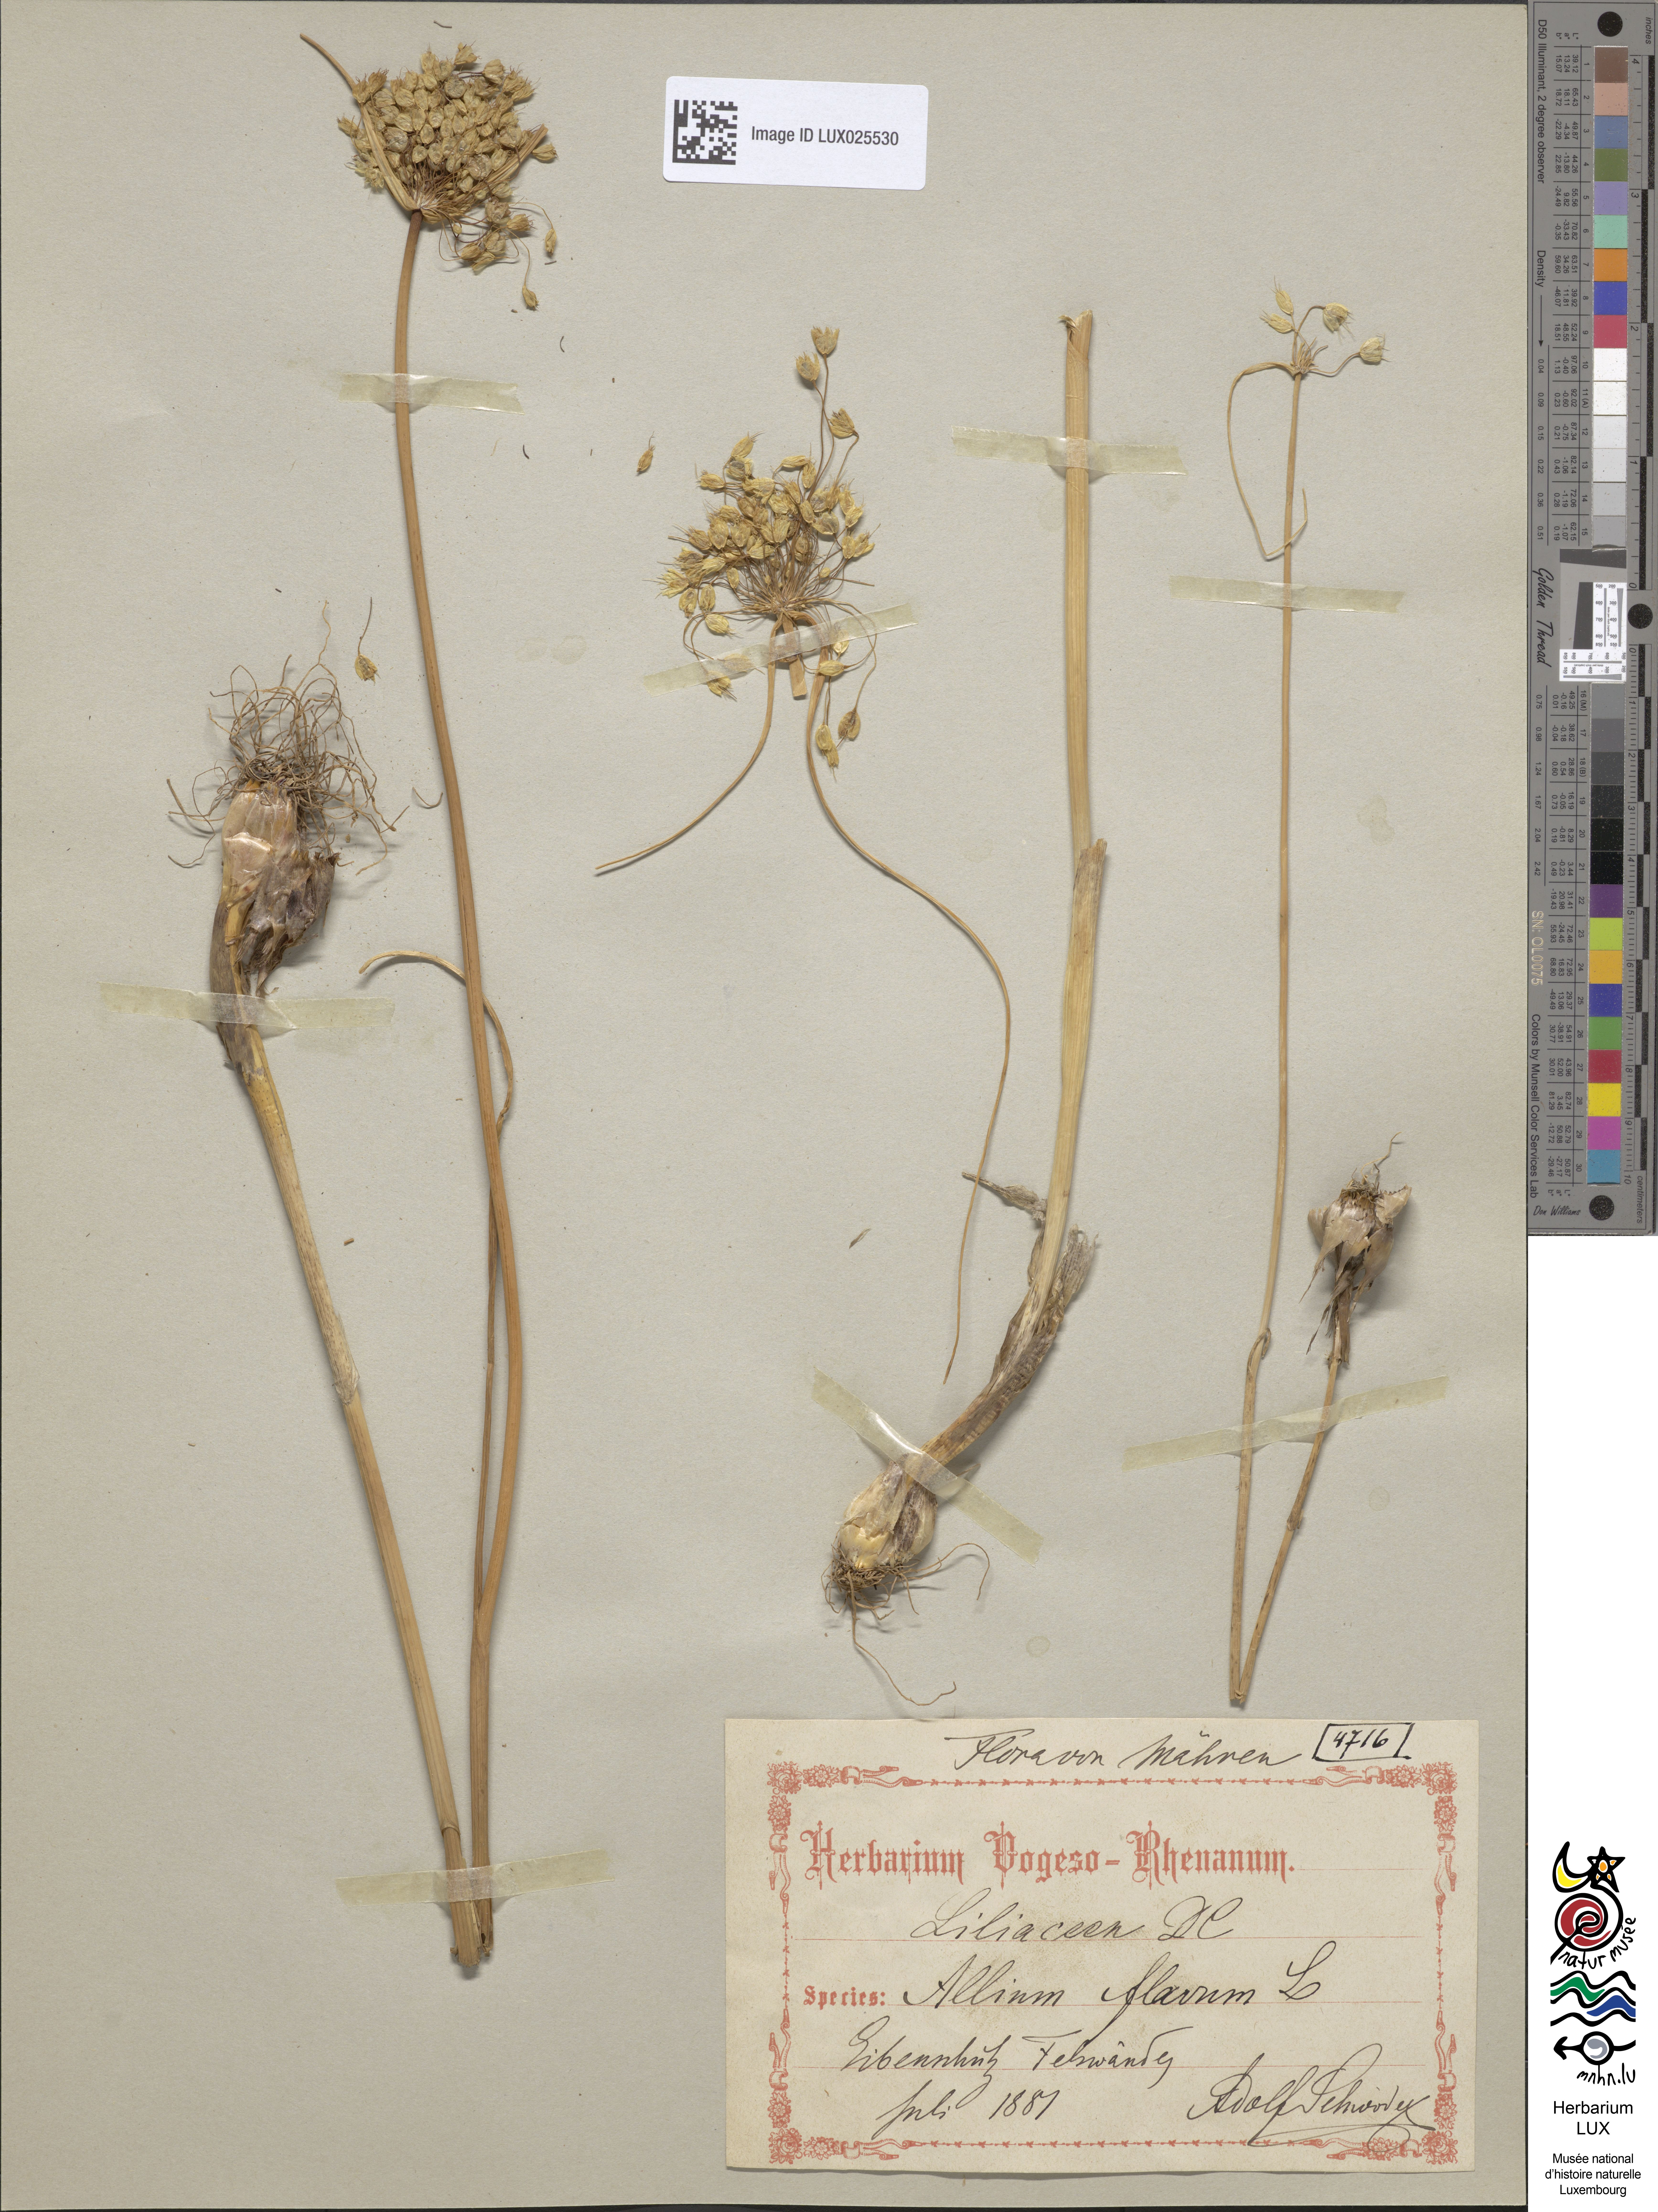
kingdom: Plantae
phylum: Tracheophyta
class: Liliopsida
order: Asparagales
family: Amaryllidaceae
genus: Allium
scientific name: Allium flavum
